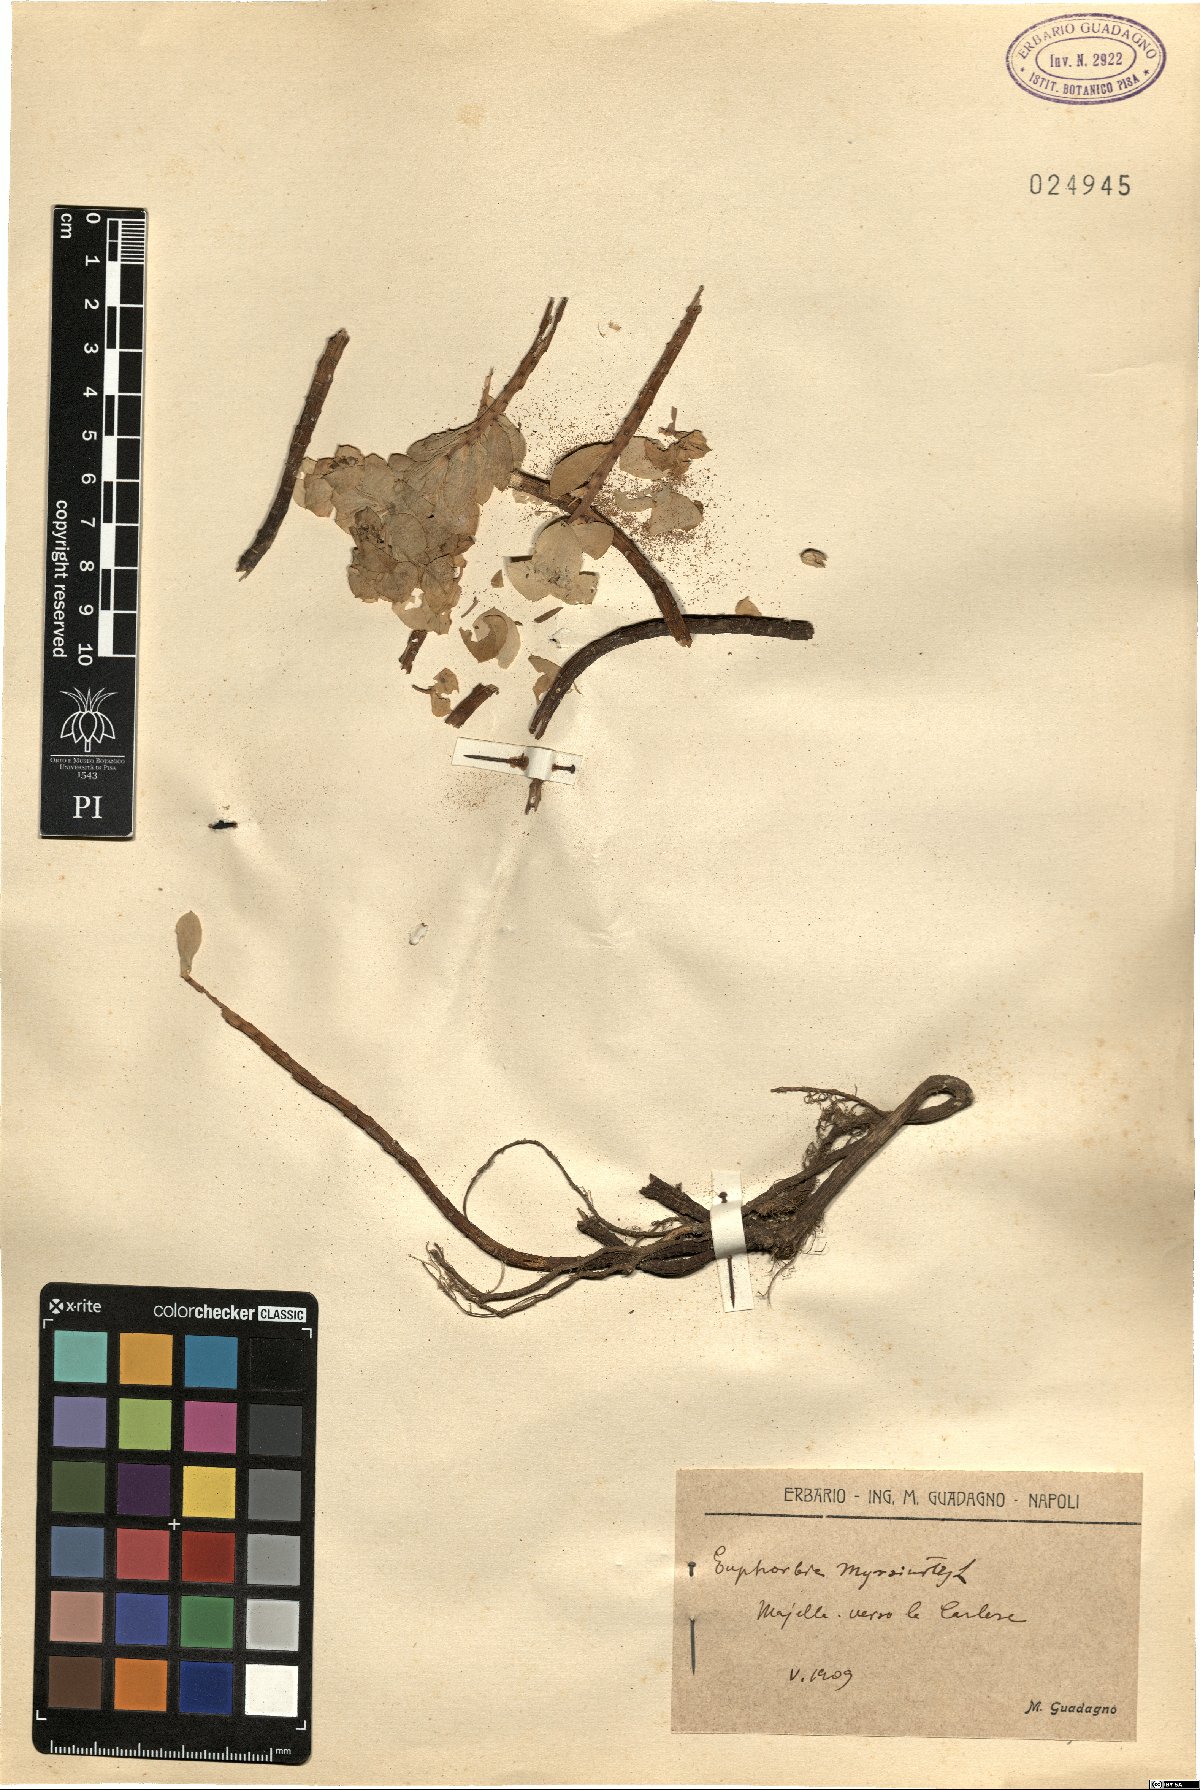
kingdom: Plantae
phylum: Tracheophyta
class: Magnoliopsida
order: Malpighiales
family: Euphorbiaceae
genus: Euphorbia
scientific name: Euphorbia myrsinites
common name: Myrtle spurge
